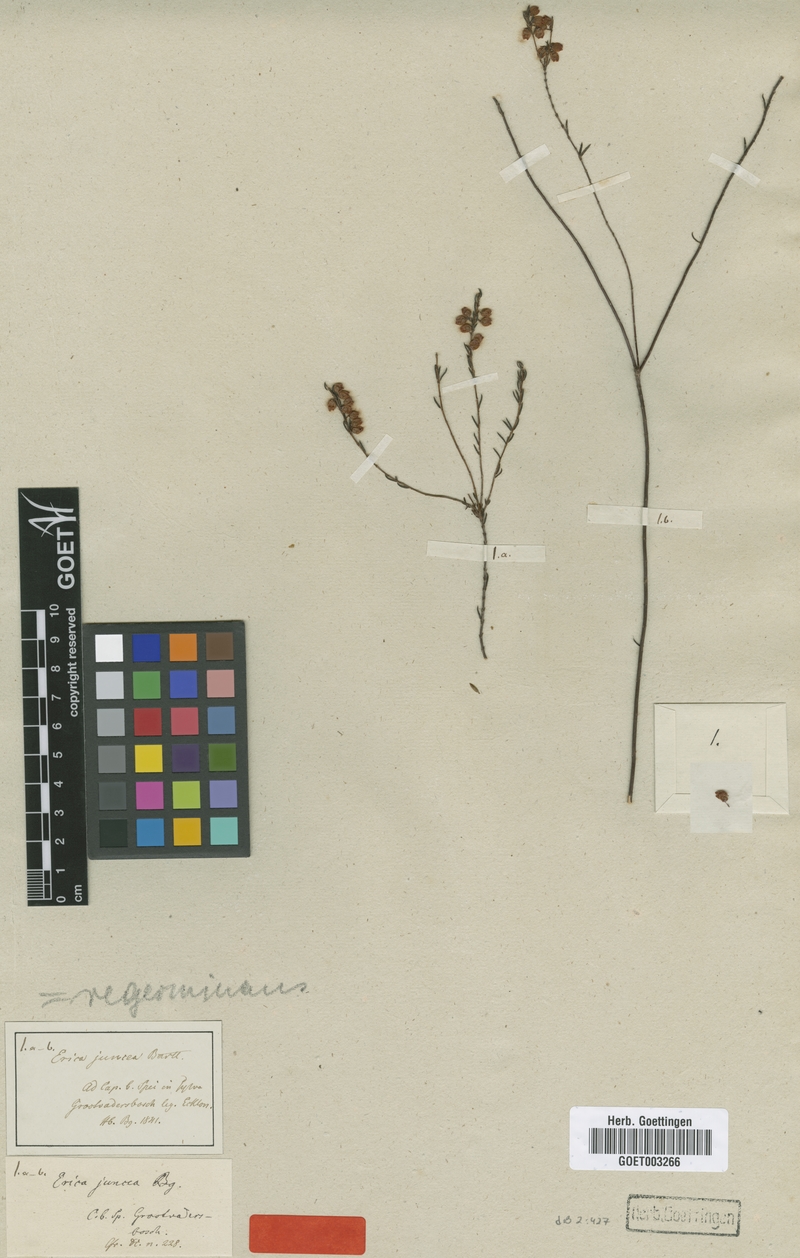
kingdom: Plantae
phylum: Tracheophyta
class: Magnoliopsida
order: Ericales
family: Ericaceae
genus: Erica
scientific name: Erica regerminans
